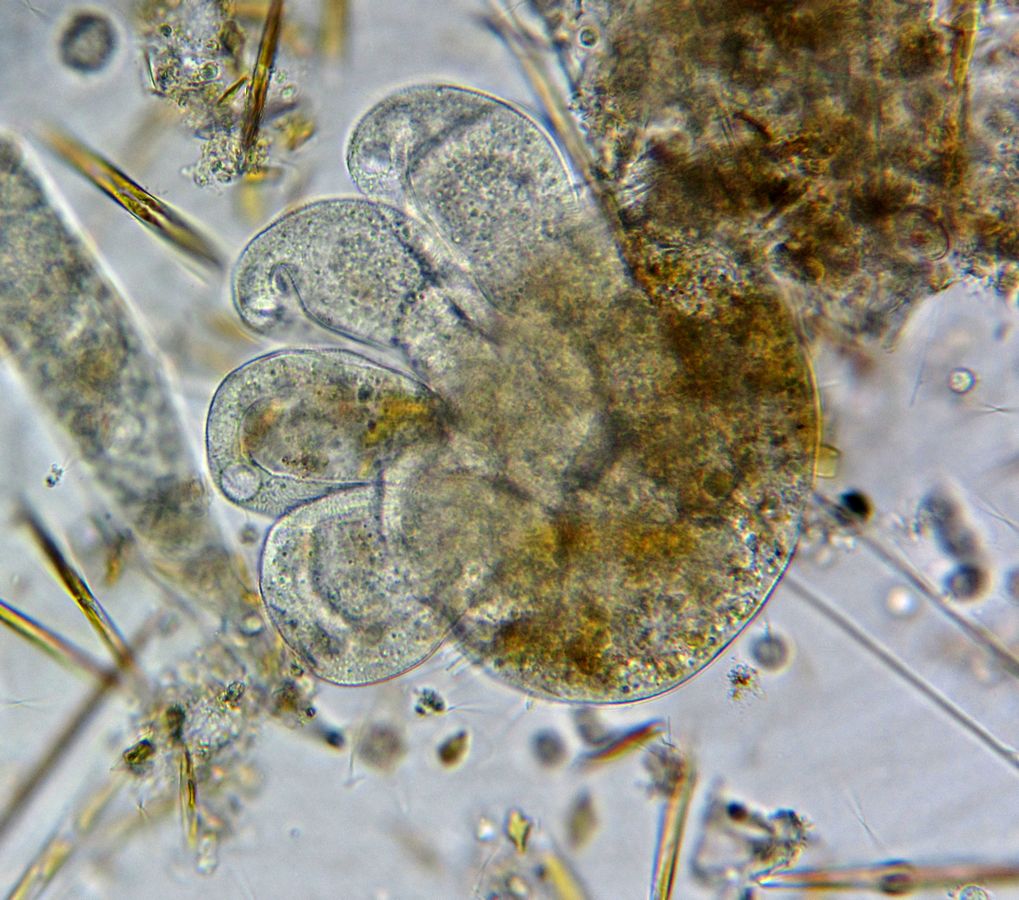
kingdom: Chromista
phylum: Ciliophora
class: Phyllopharyngea
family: Ephelotidae
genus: Ephelota
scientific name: Ephelota mammillata
